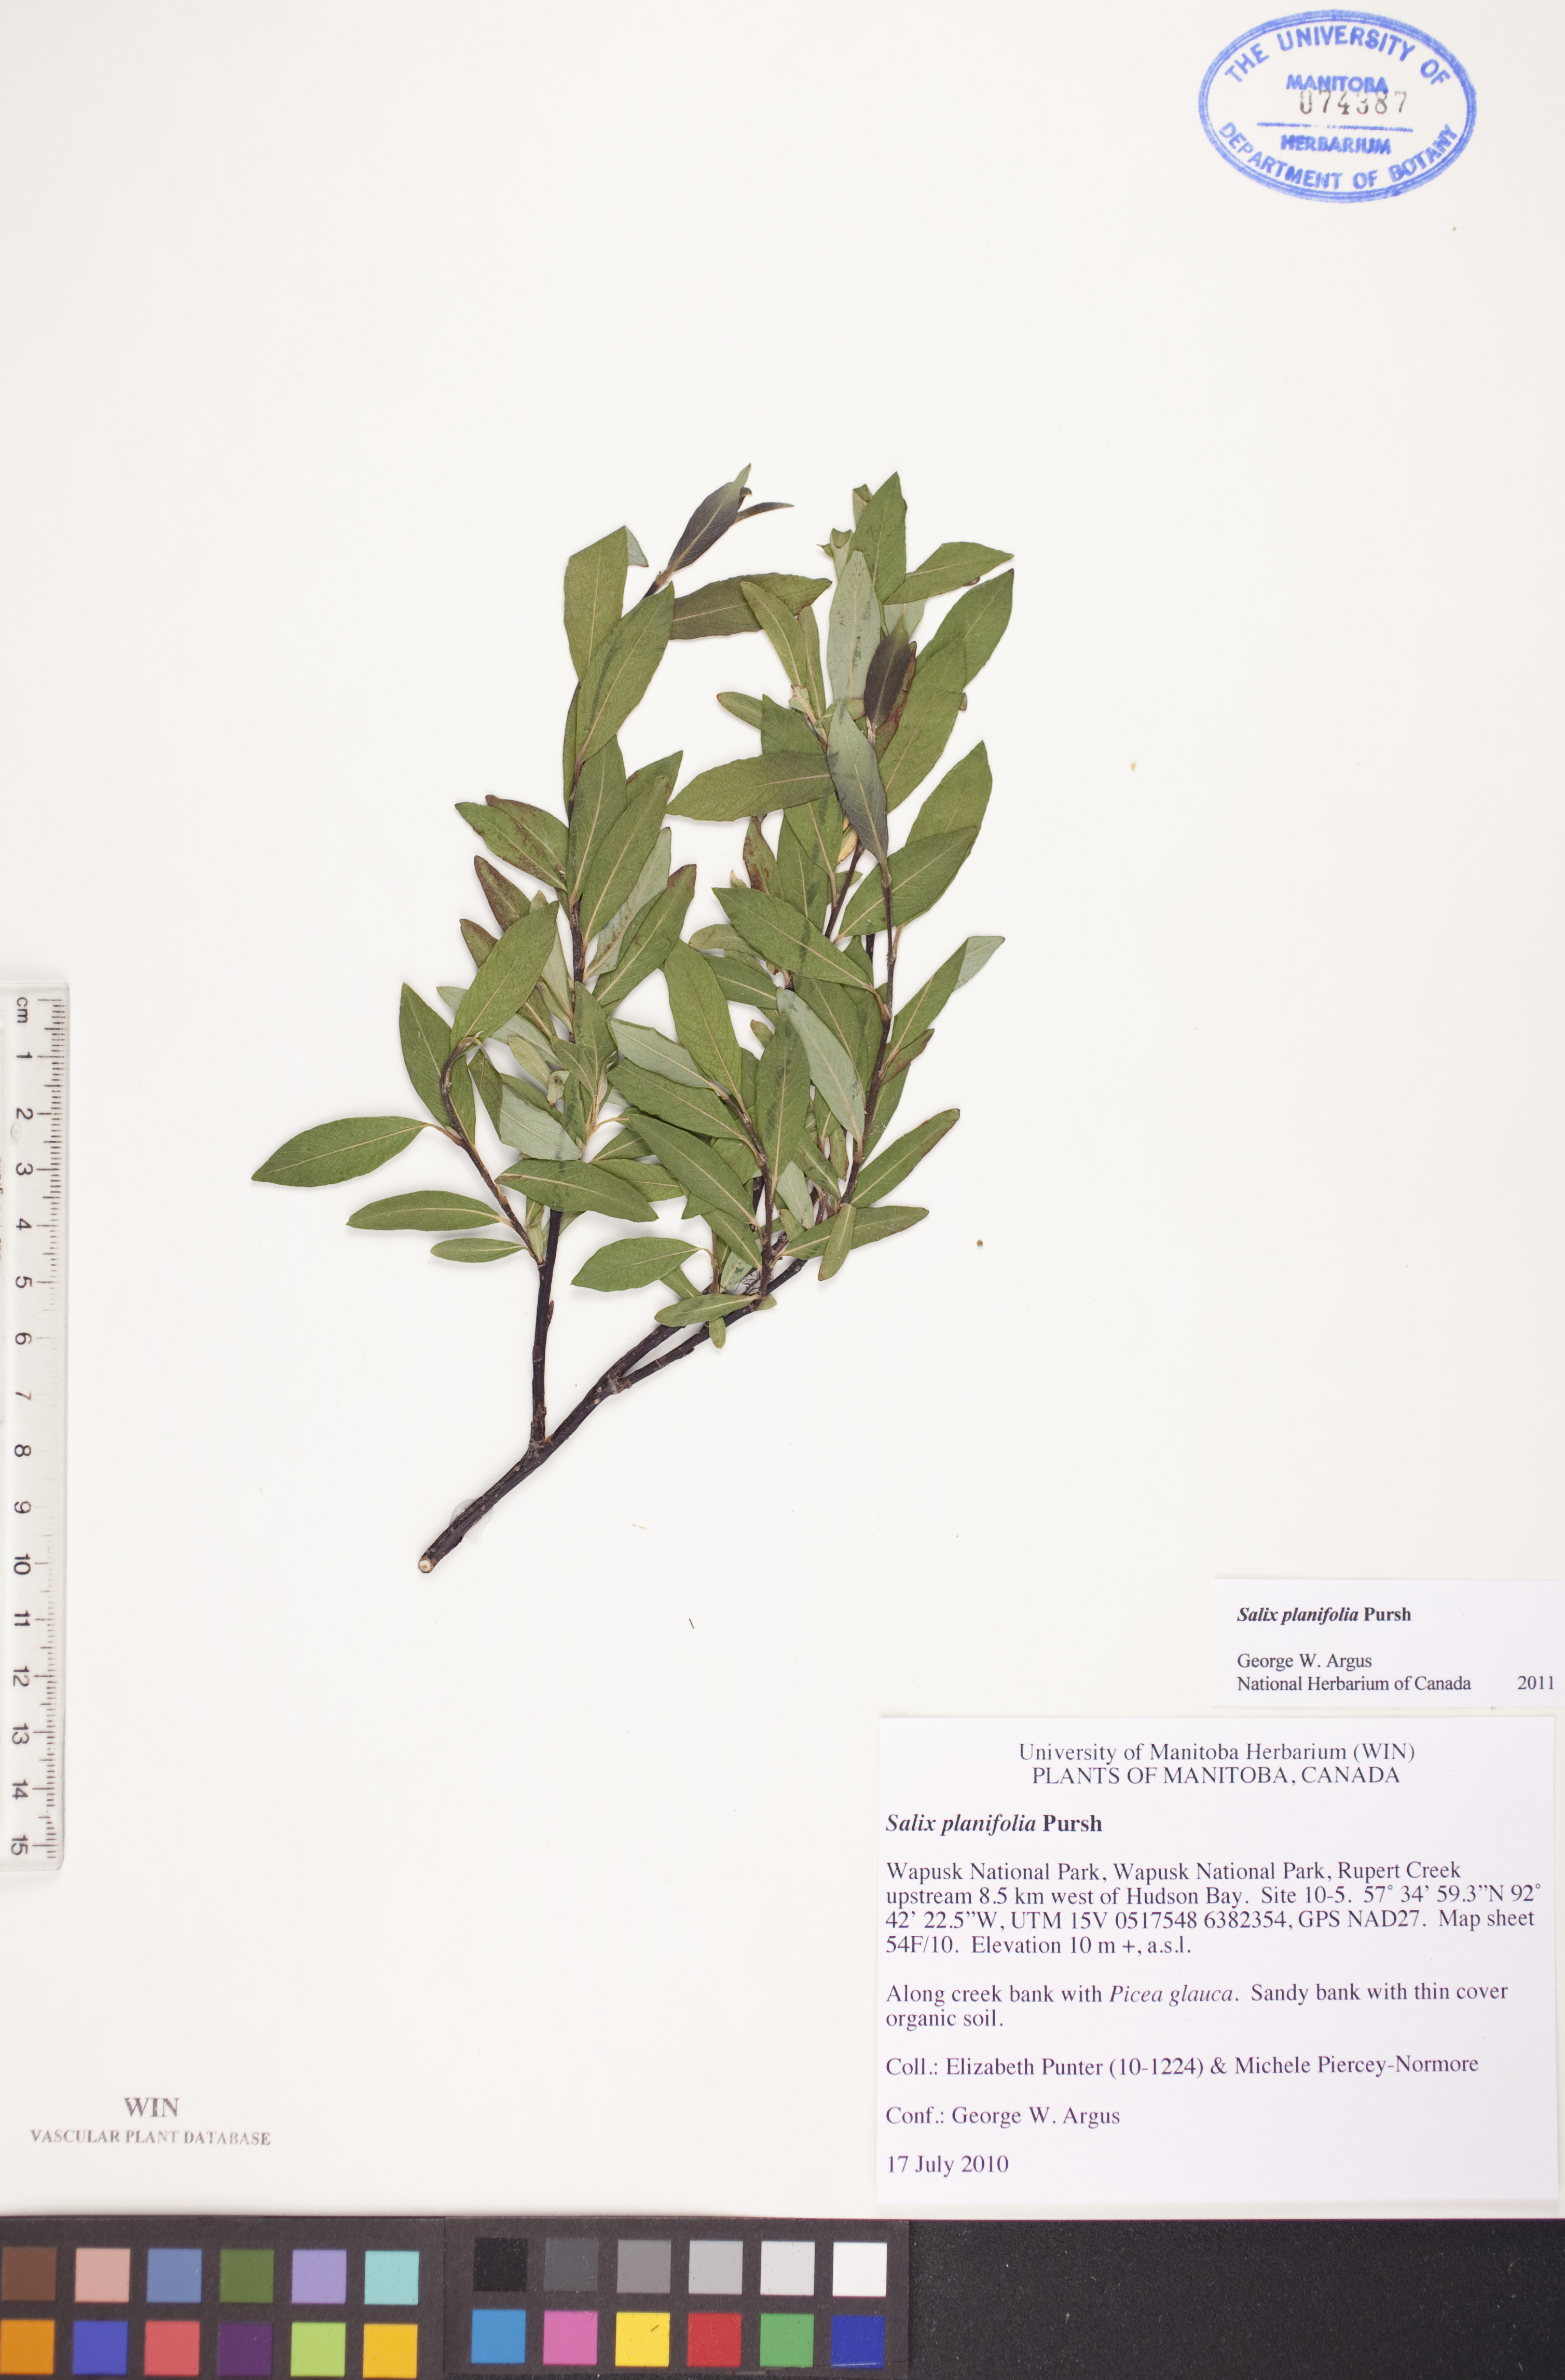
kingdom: Plantae
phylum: Tracheophyta
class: Magnoliopsida
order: Malpighiales
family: Salicaceae
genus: Salix
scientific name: Salix planifolia
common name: Mountain willow
